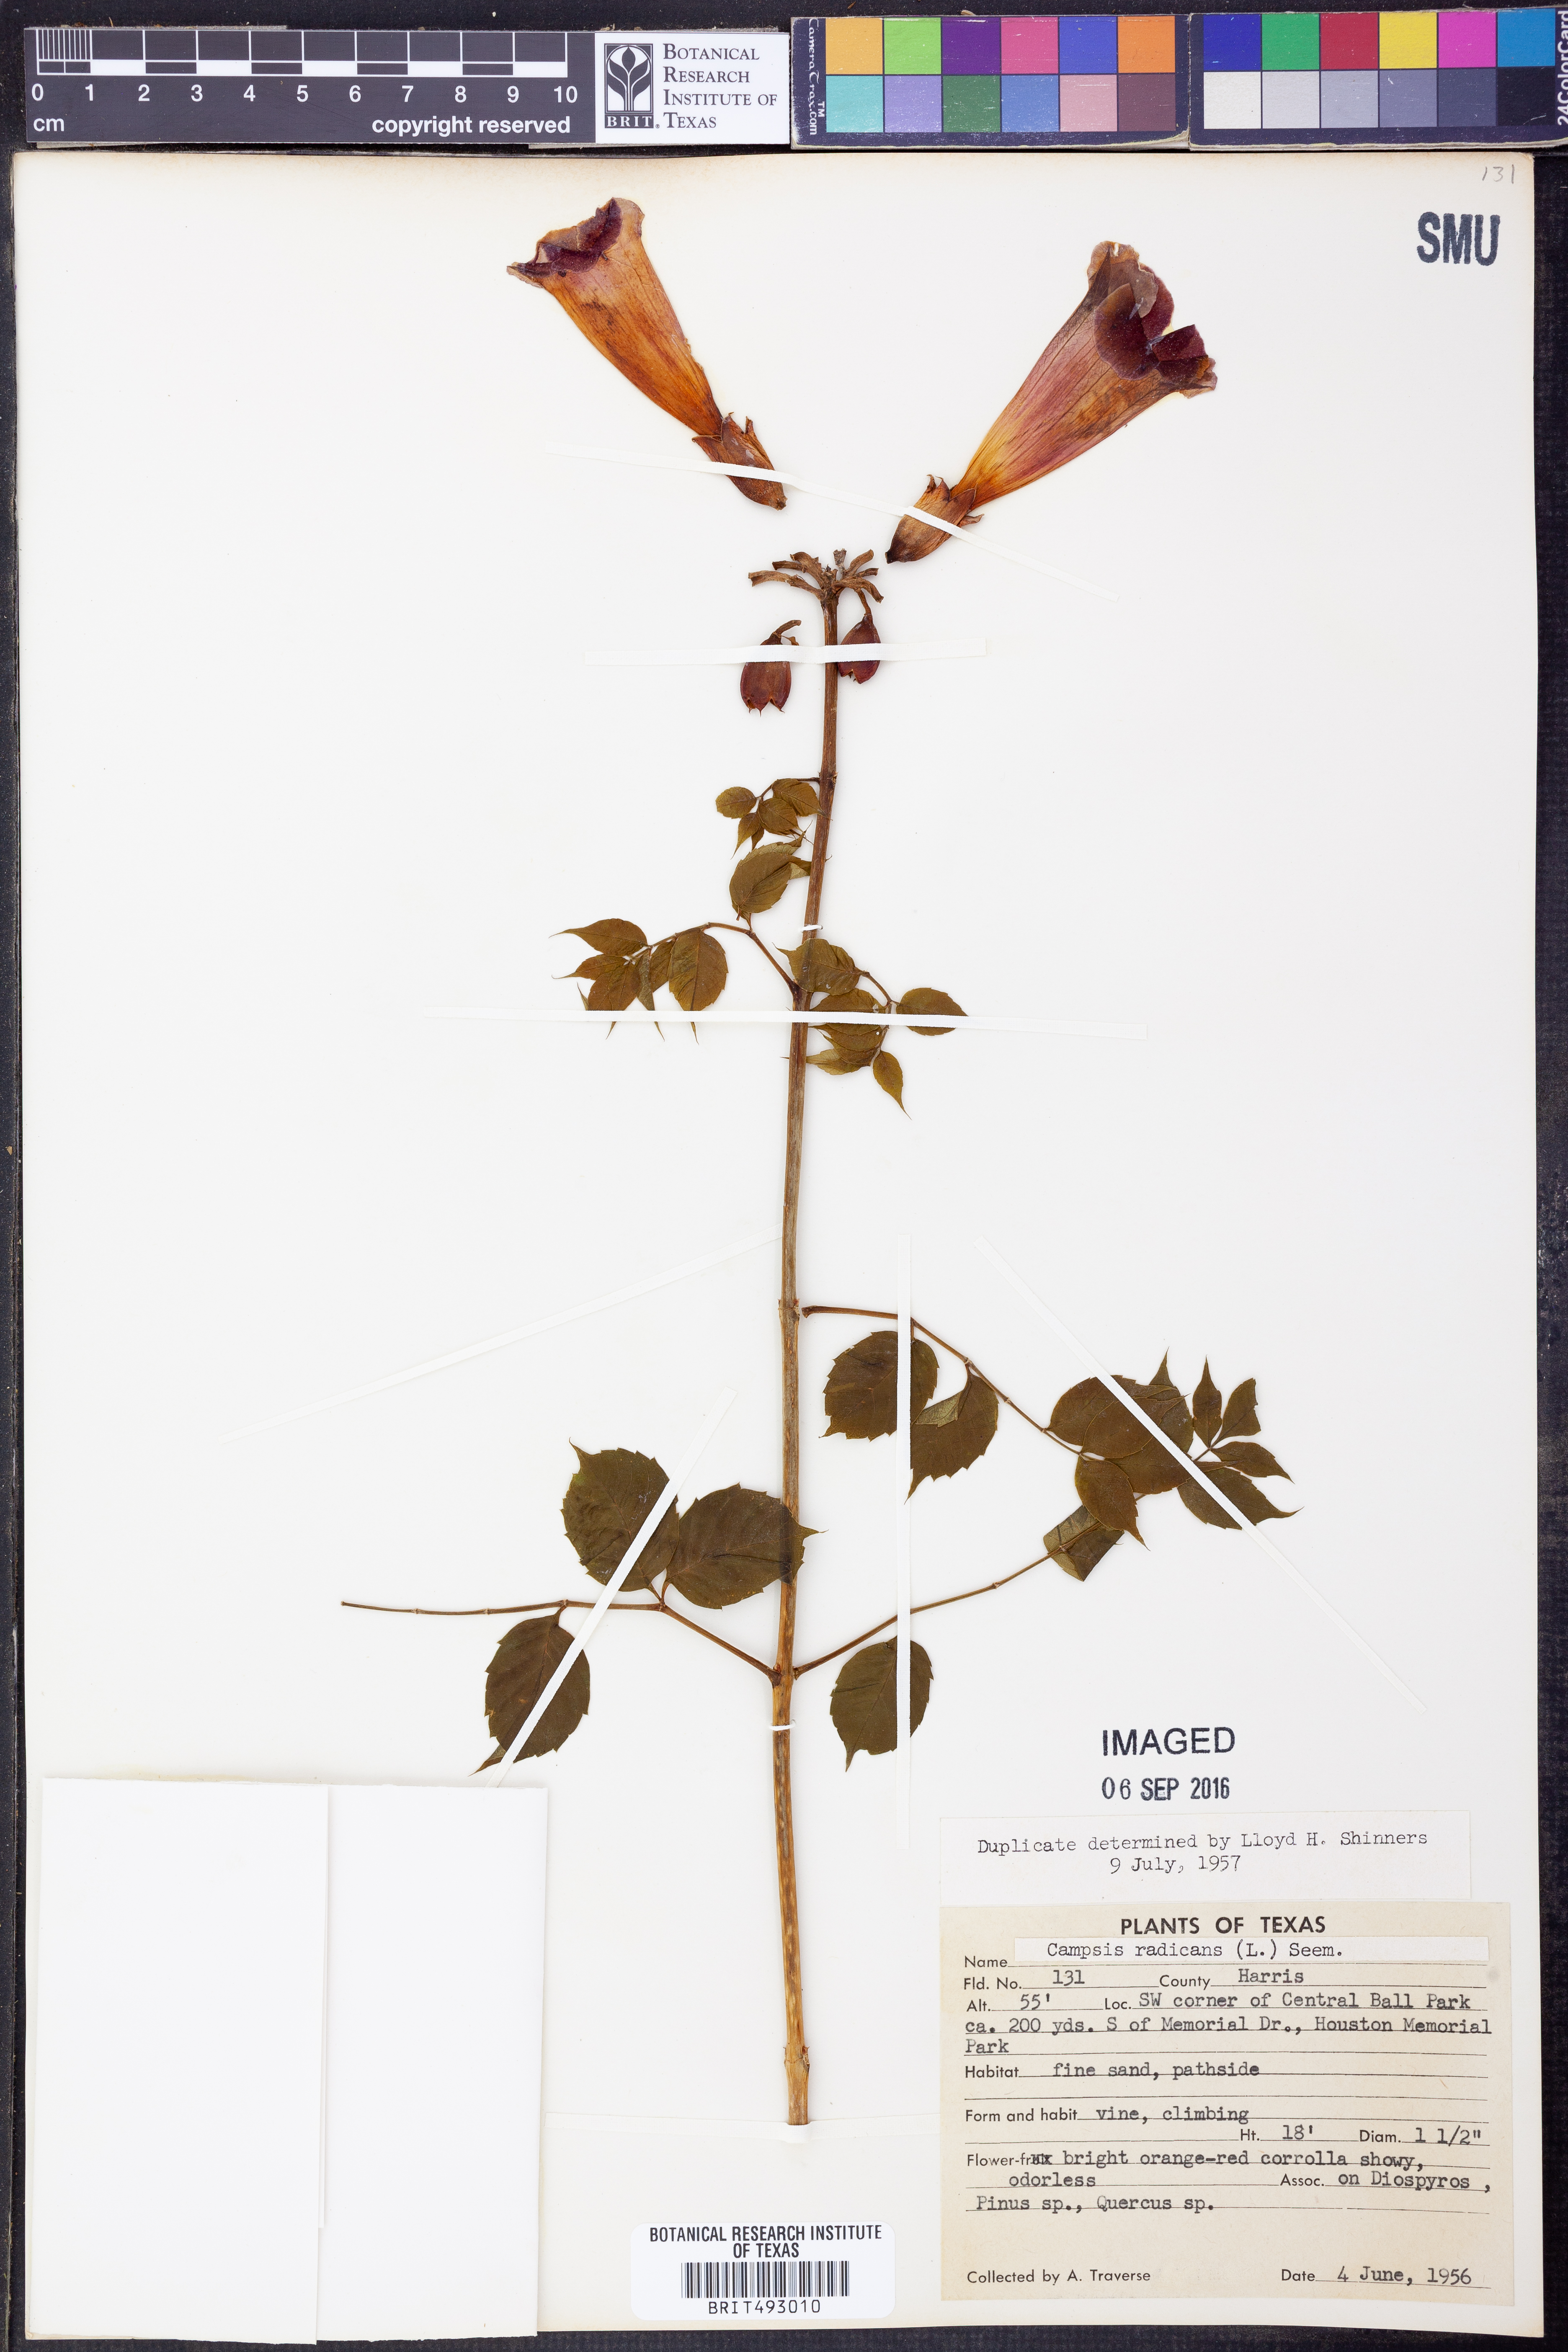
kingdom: Plantae
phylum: Tracheophyta
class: Magnoliopsida
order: Lamiales
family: Bignoniaceae
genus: Campsis
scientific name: Campsis radicans
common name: Trumpet-creeper
